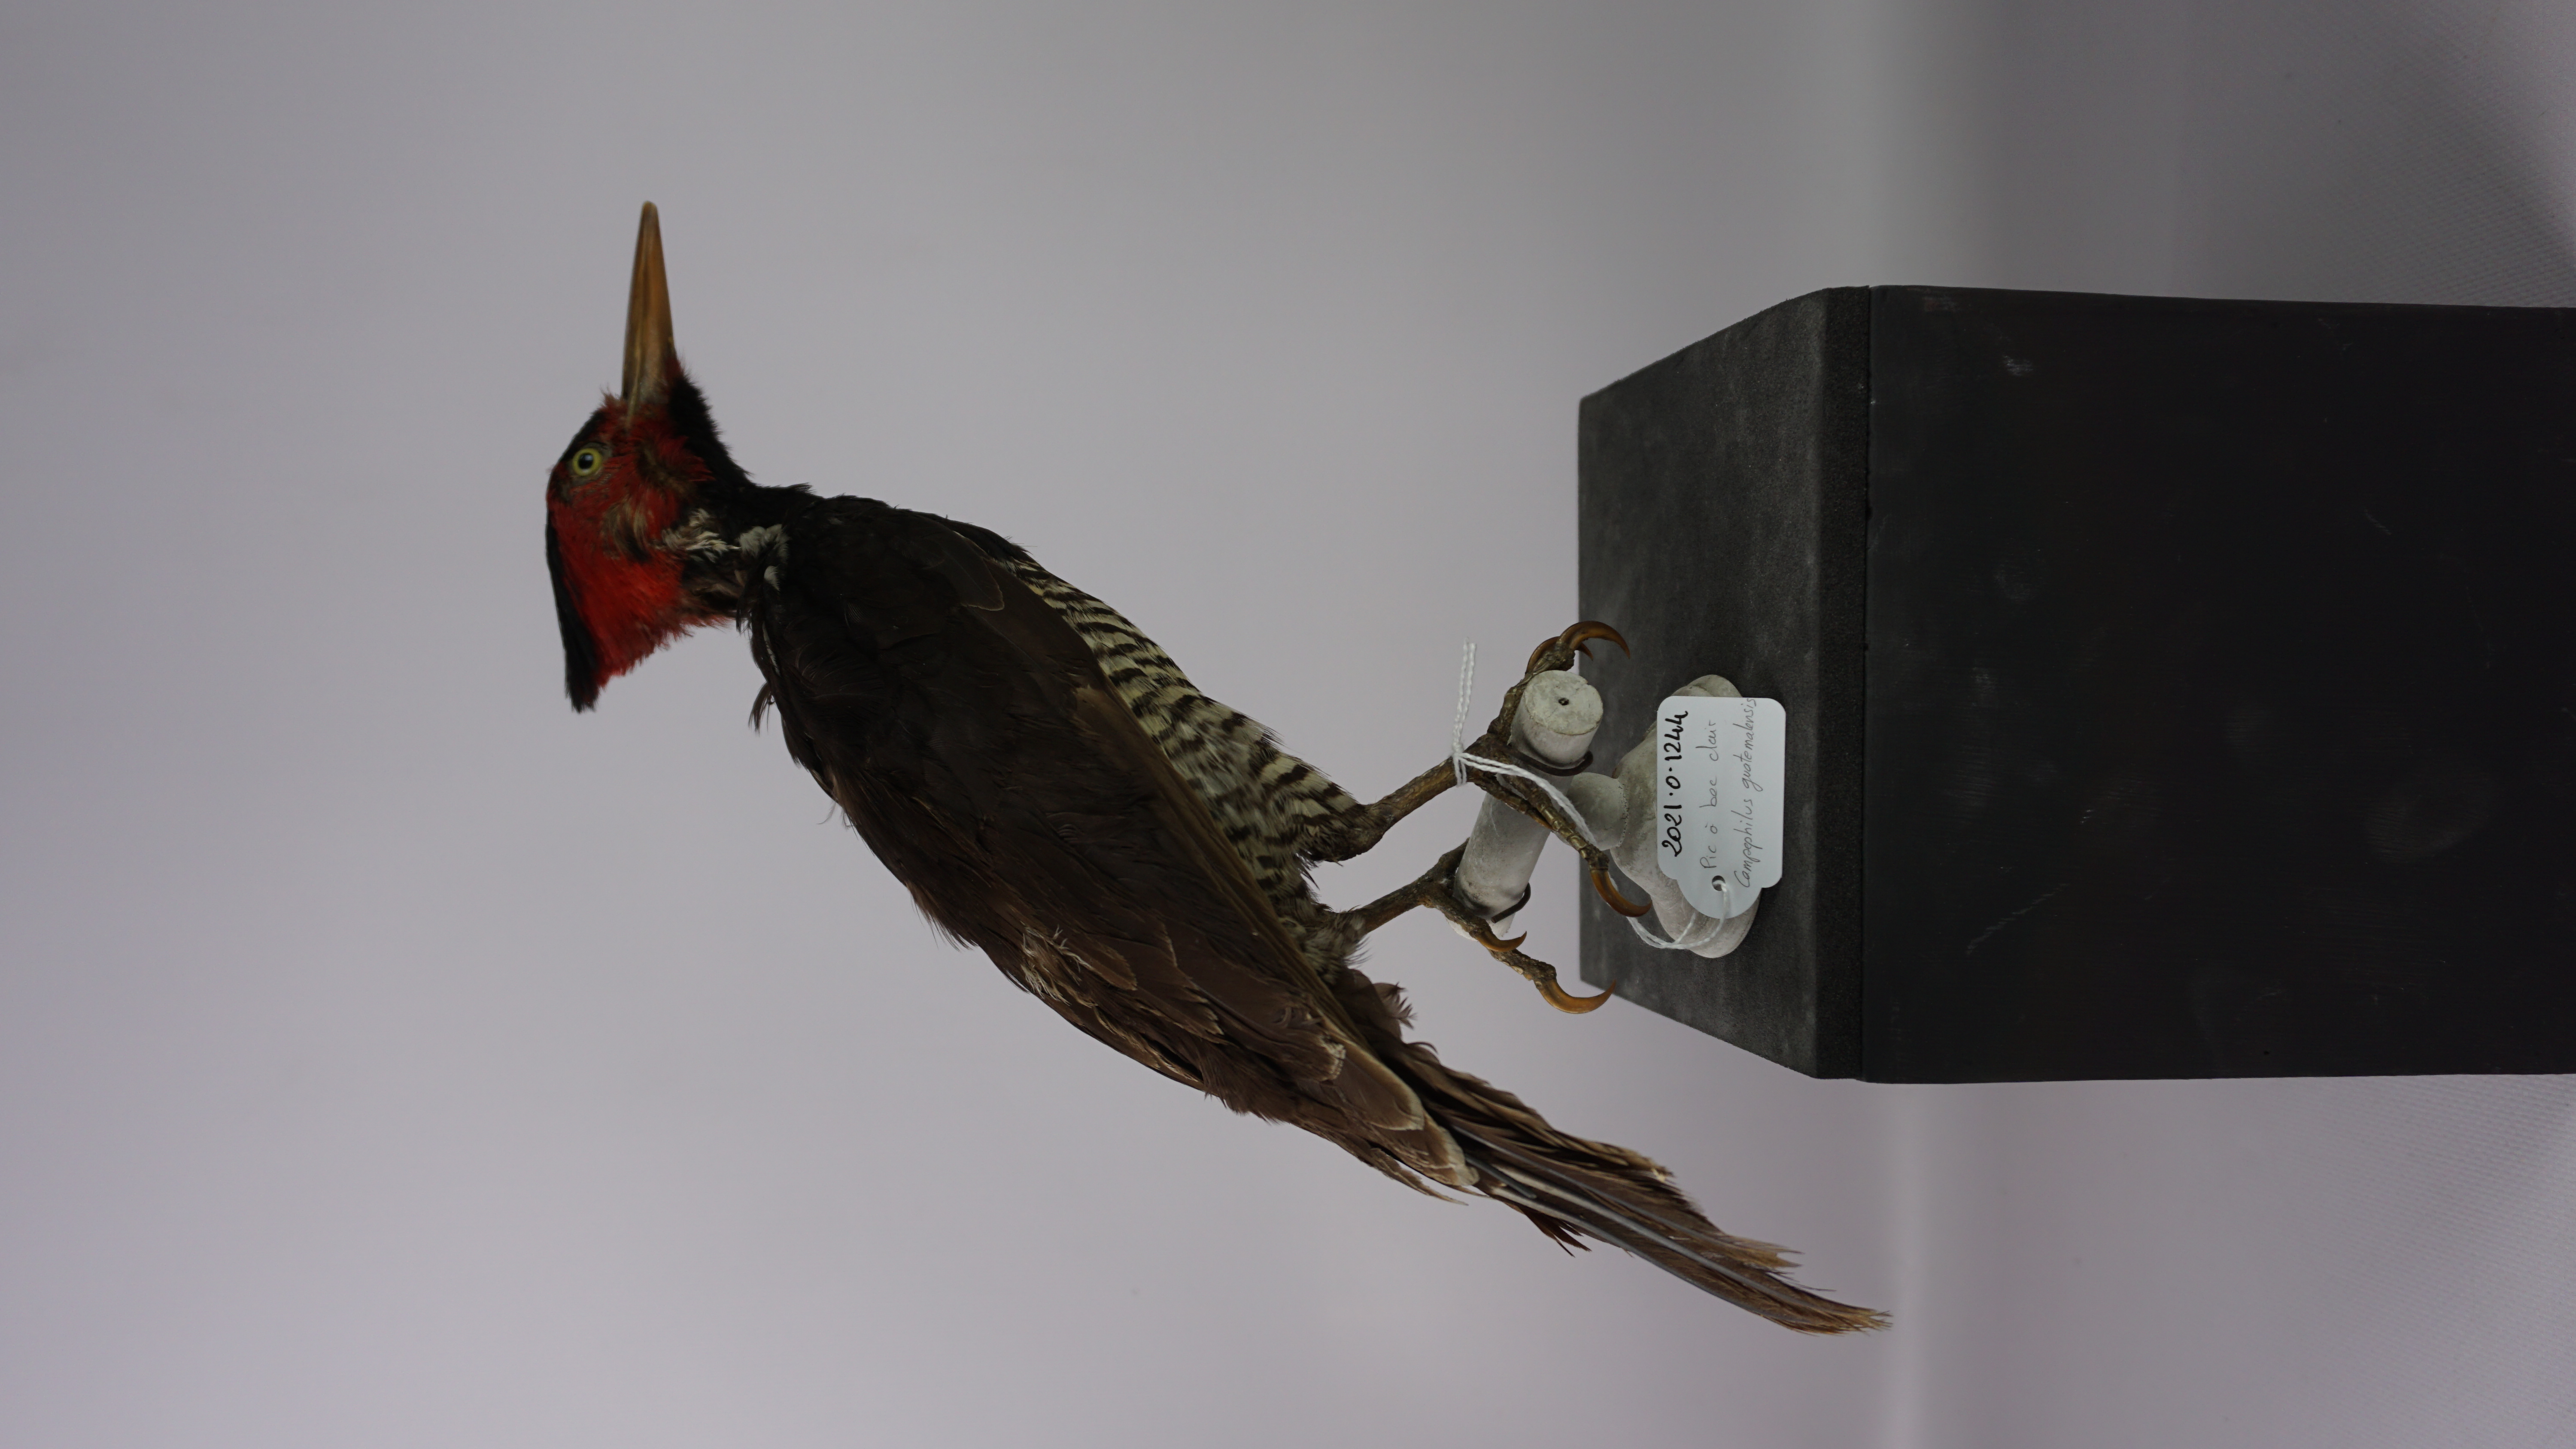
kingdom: Animalia
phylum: Chordata
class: Aves
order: Piciformes
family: Picidae
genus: Campephilus
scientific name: Campephilus guatemalensis
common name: Pale-billed woodpecker
